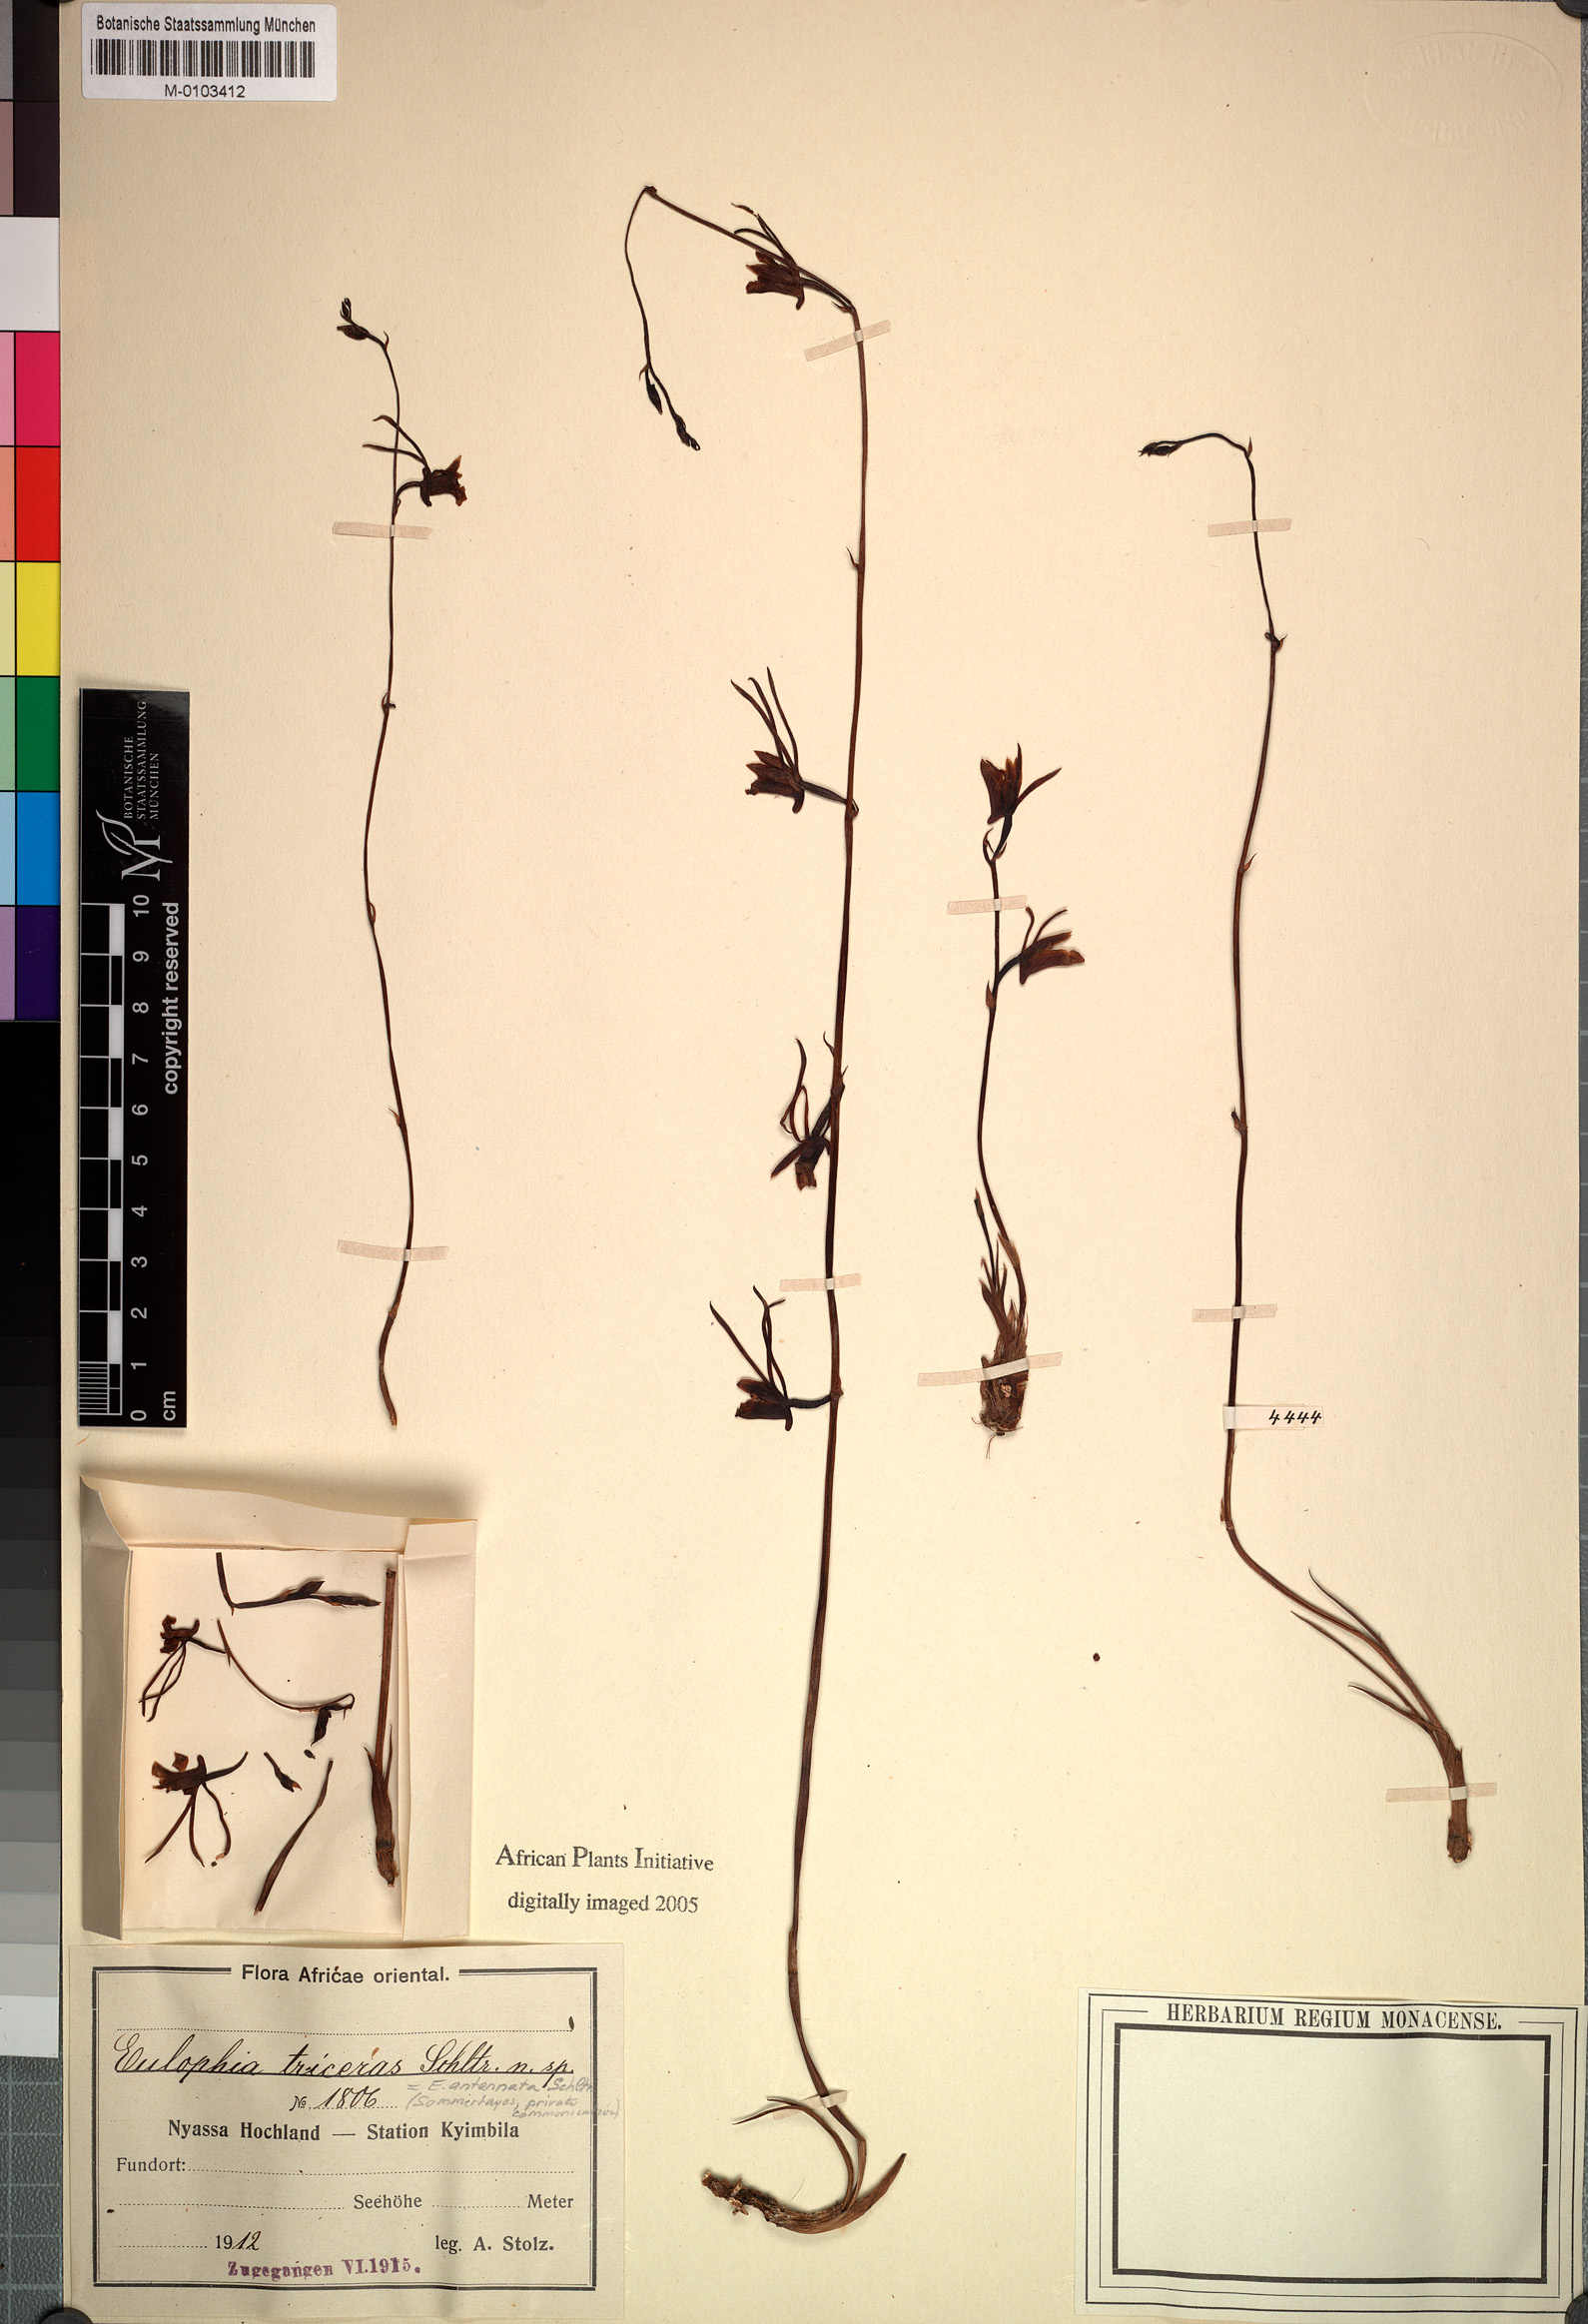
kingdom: Plantae
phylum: Tracheophyta
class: Liliopsida
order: Asparagales
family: Orchidaceae
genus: Eulophia
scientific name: Eulophia longisepala
